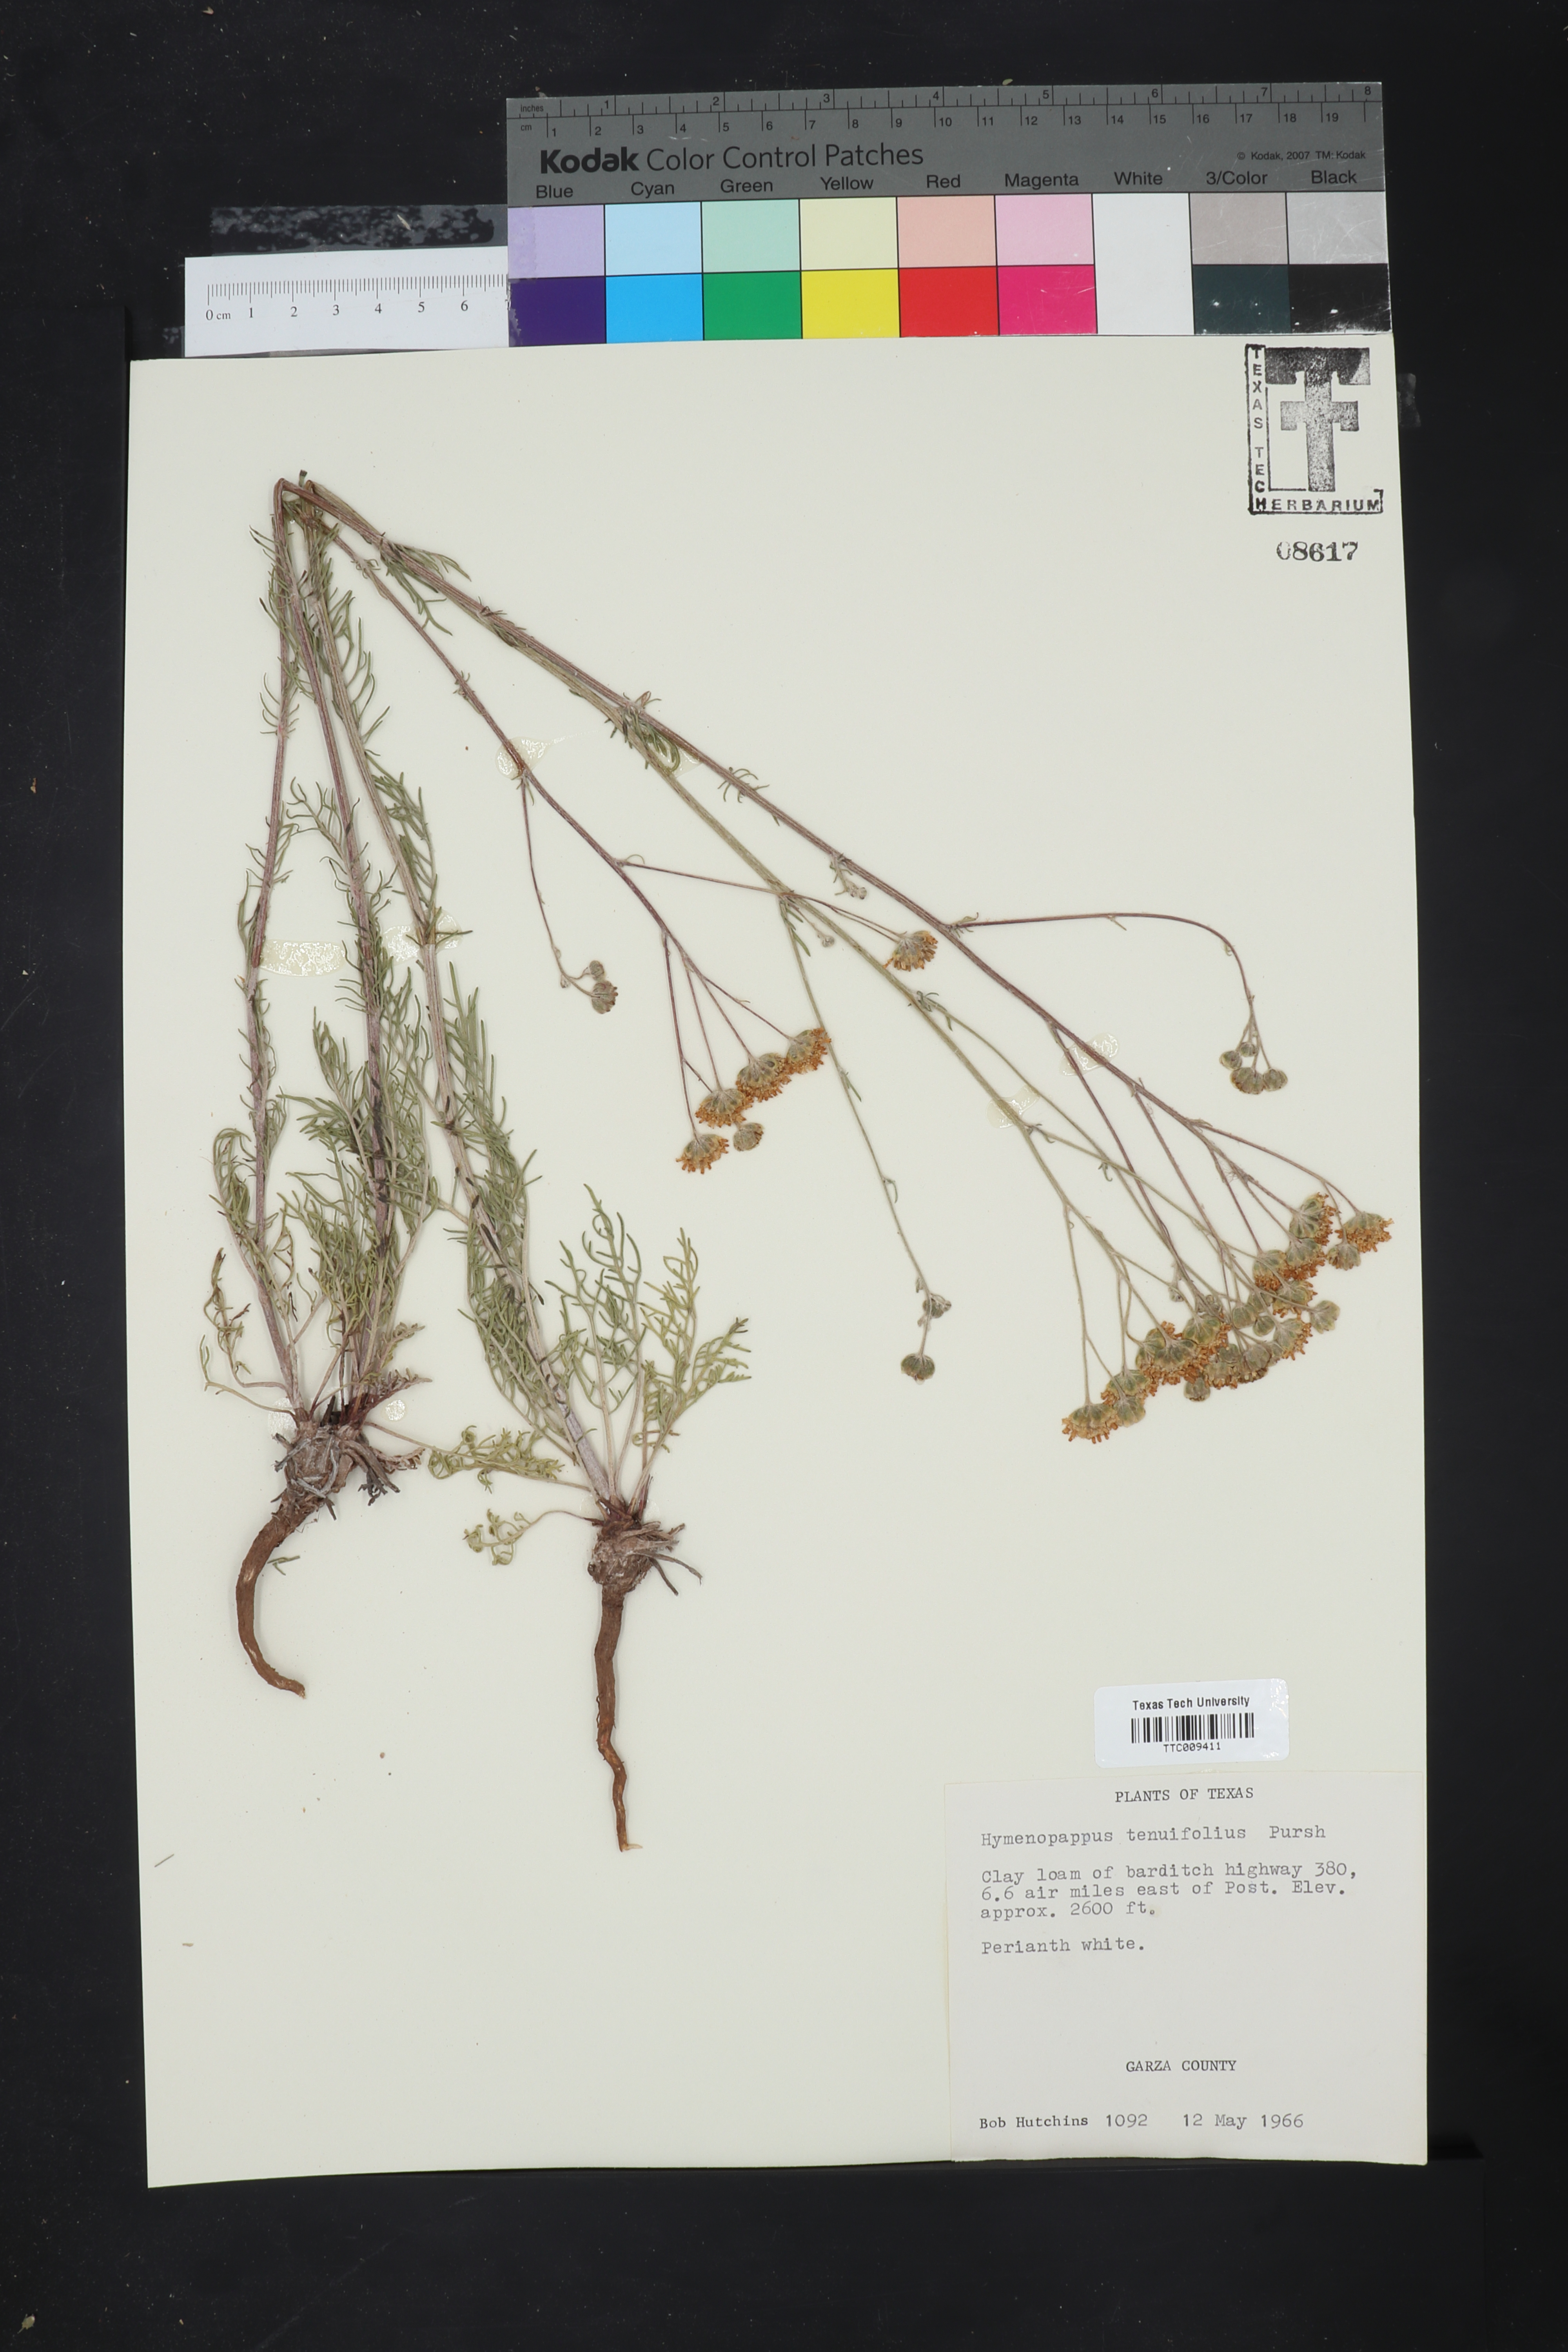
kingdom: Plantae
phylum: Tracheophyta
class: Magnoliopsida
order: Asterales
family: Asteraceae
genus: Hymenopappus
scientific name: Hymenopappus tenuifolius
